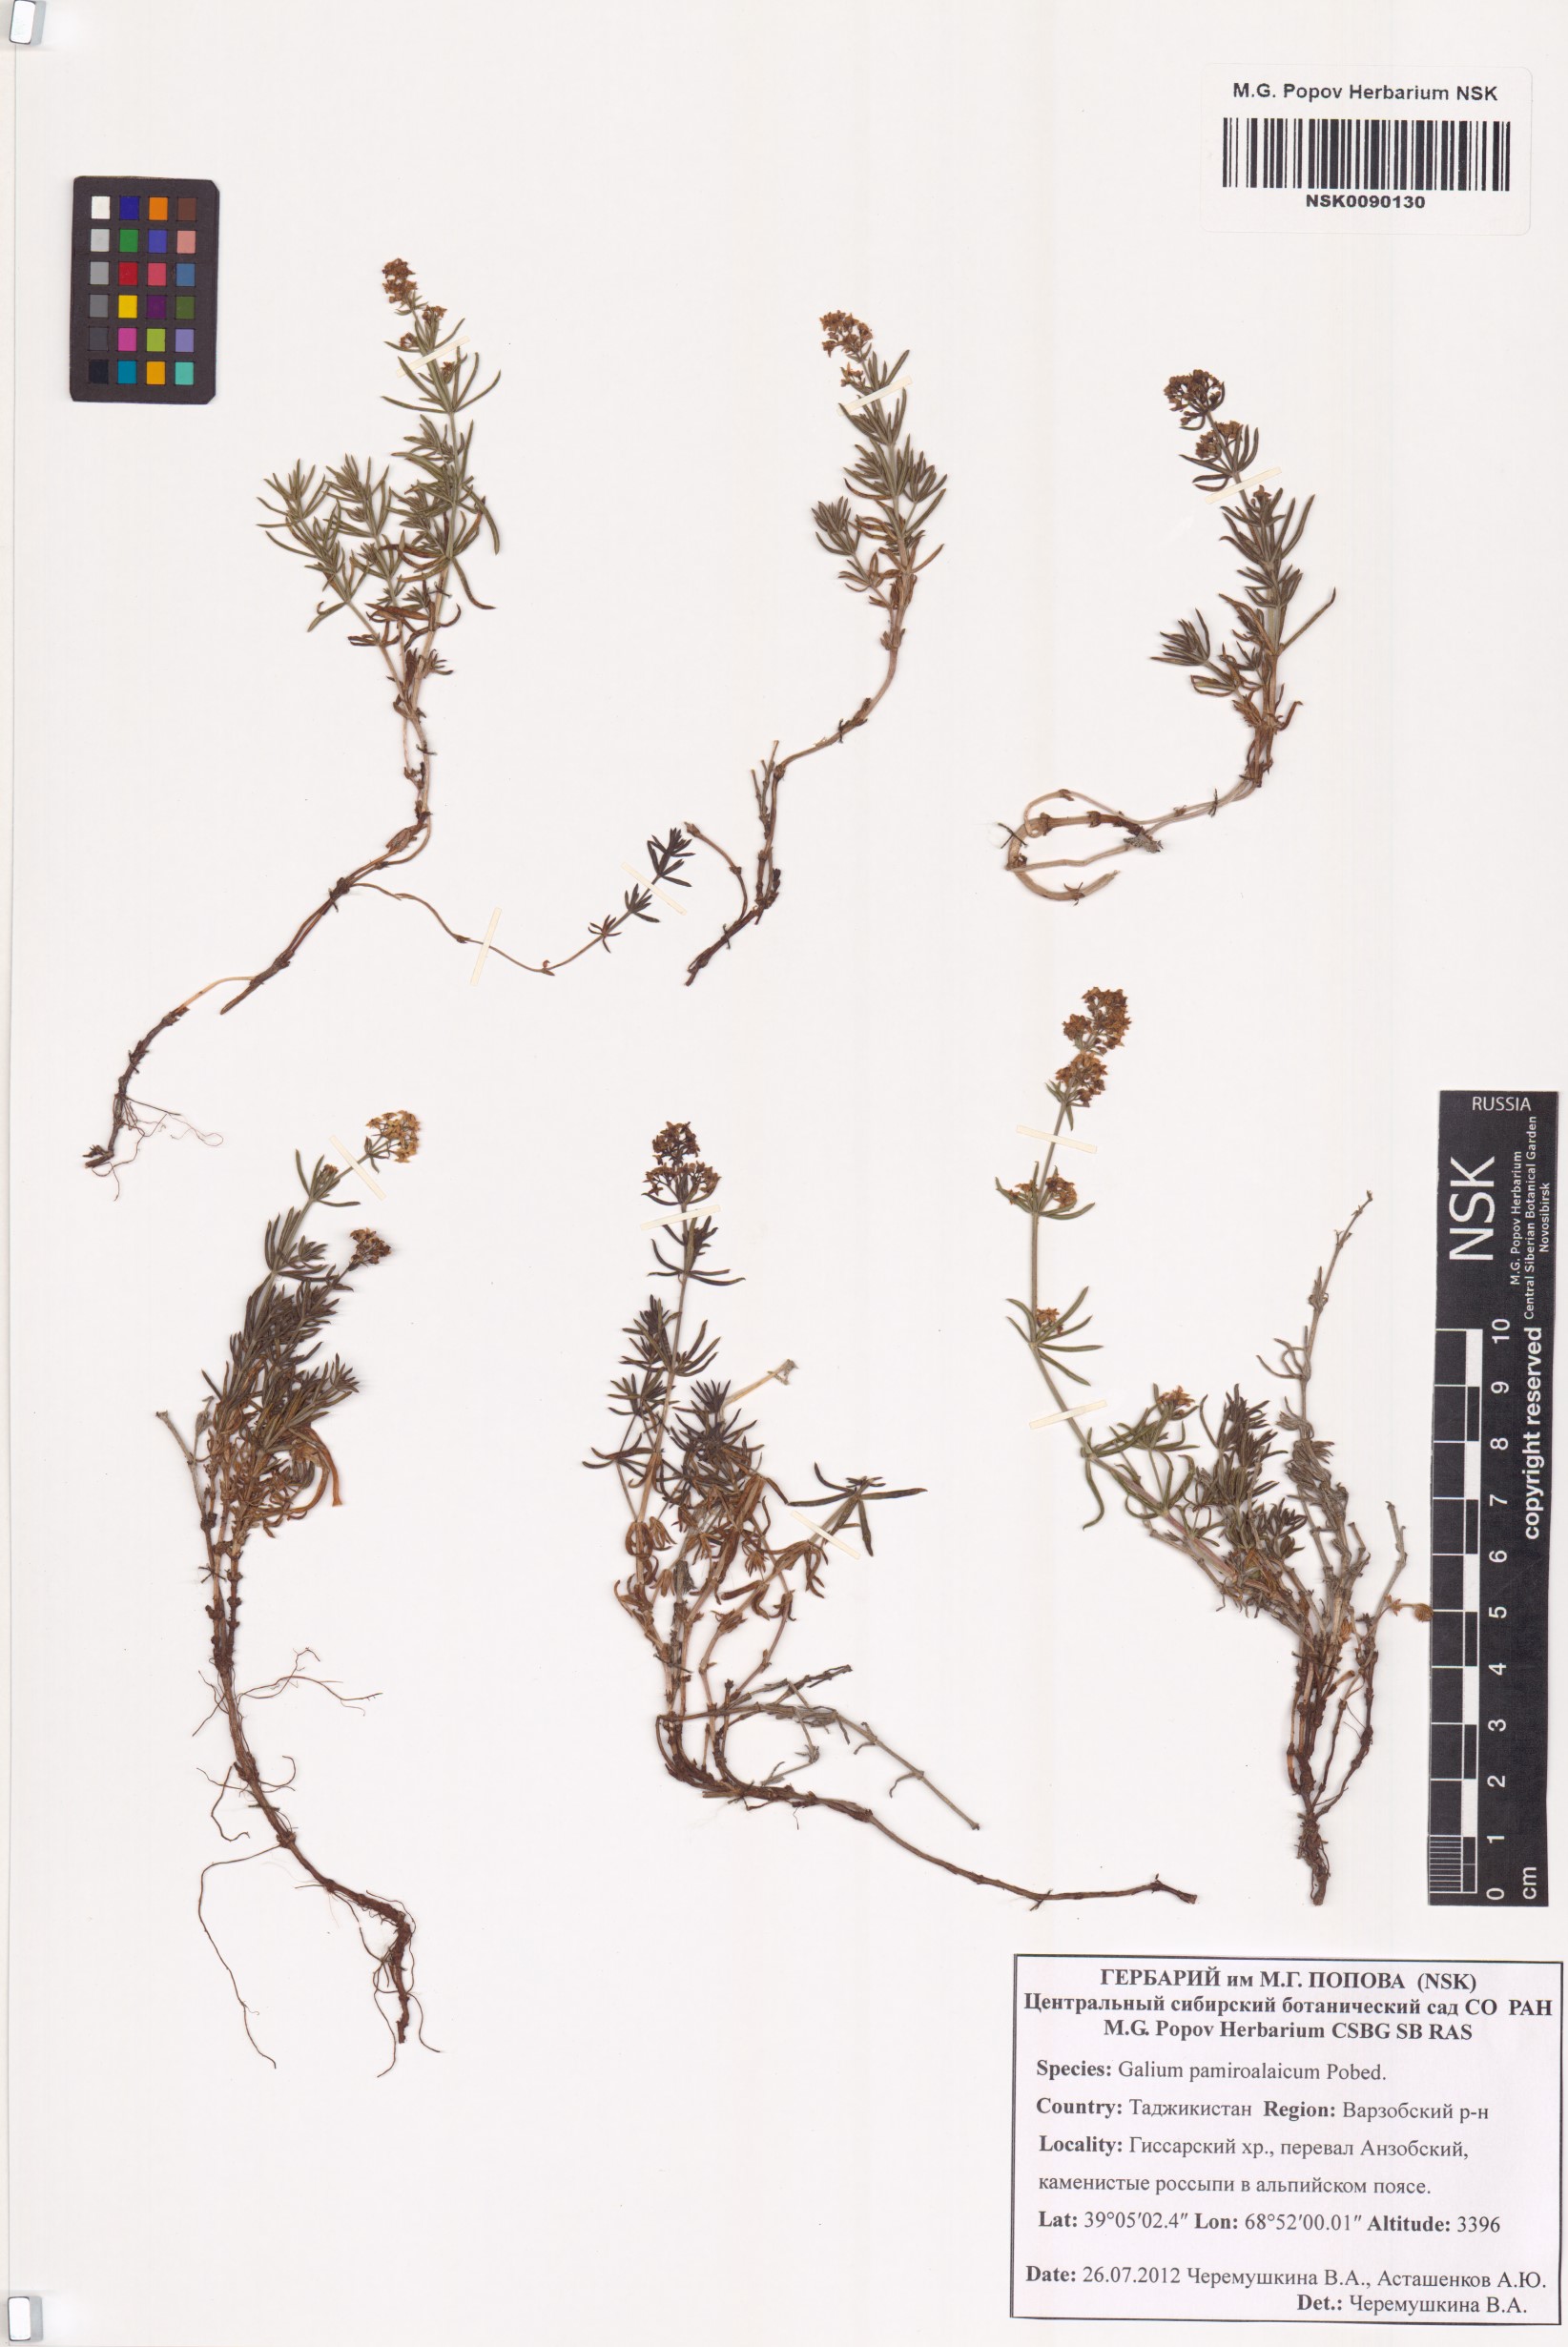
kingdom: Plantae
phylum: Tracheophyta
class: Magnoliopsida
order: Gentianales
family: Rubiaceae
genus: Galium
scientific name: Galium pamiroalaicum
